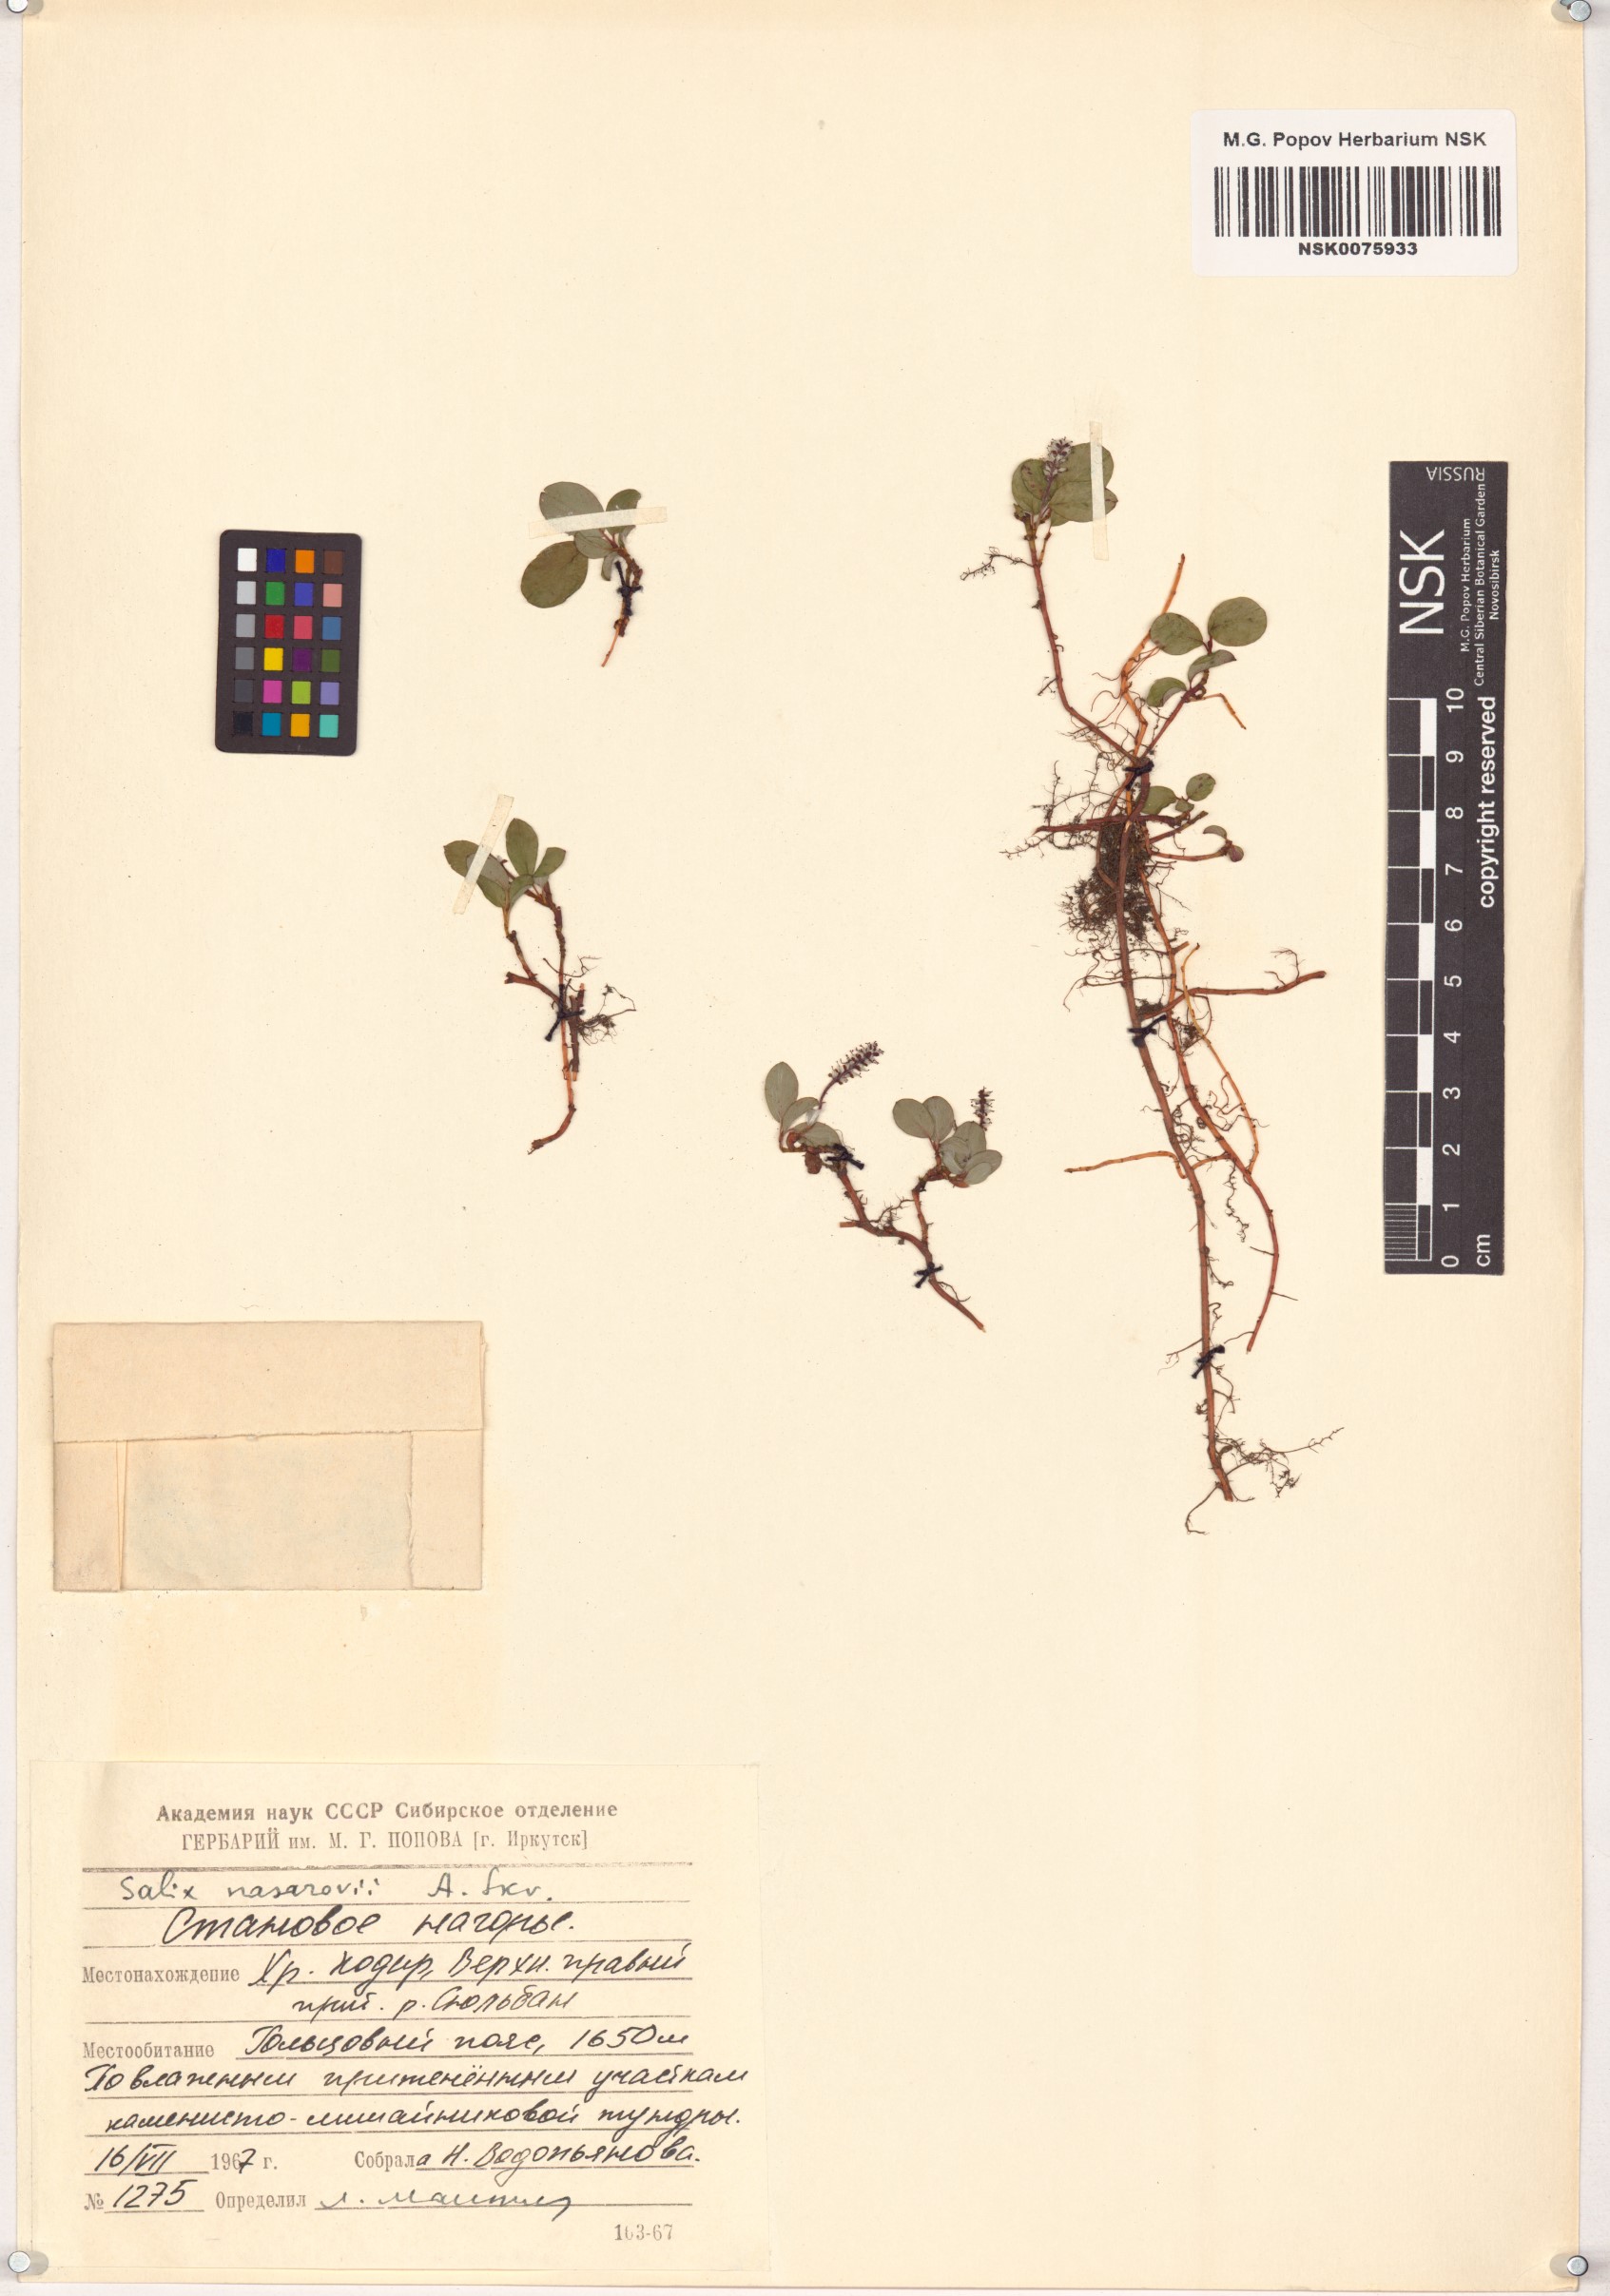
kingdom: Plantae
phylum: Tracheophyta
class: Magnoliopsida
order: Malpighiales
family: Salicaceae
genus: Salix
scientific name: Salix nasarovii
